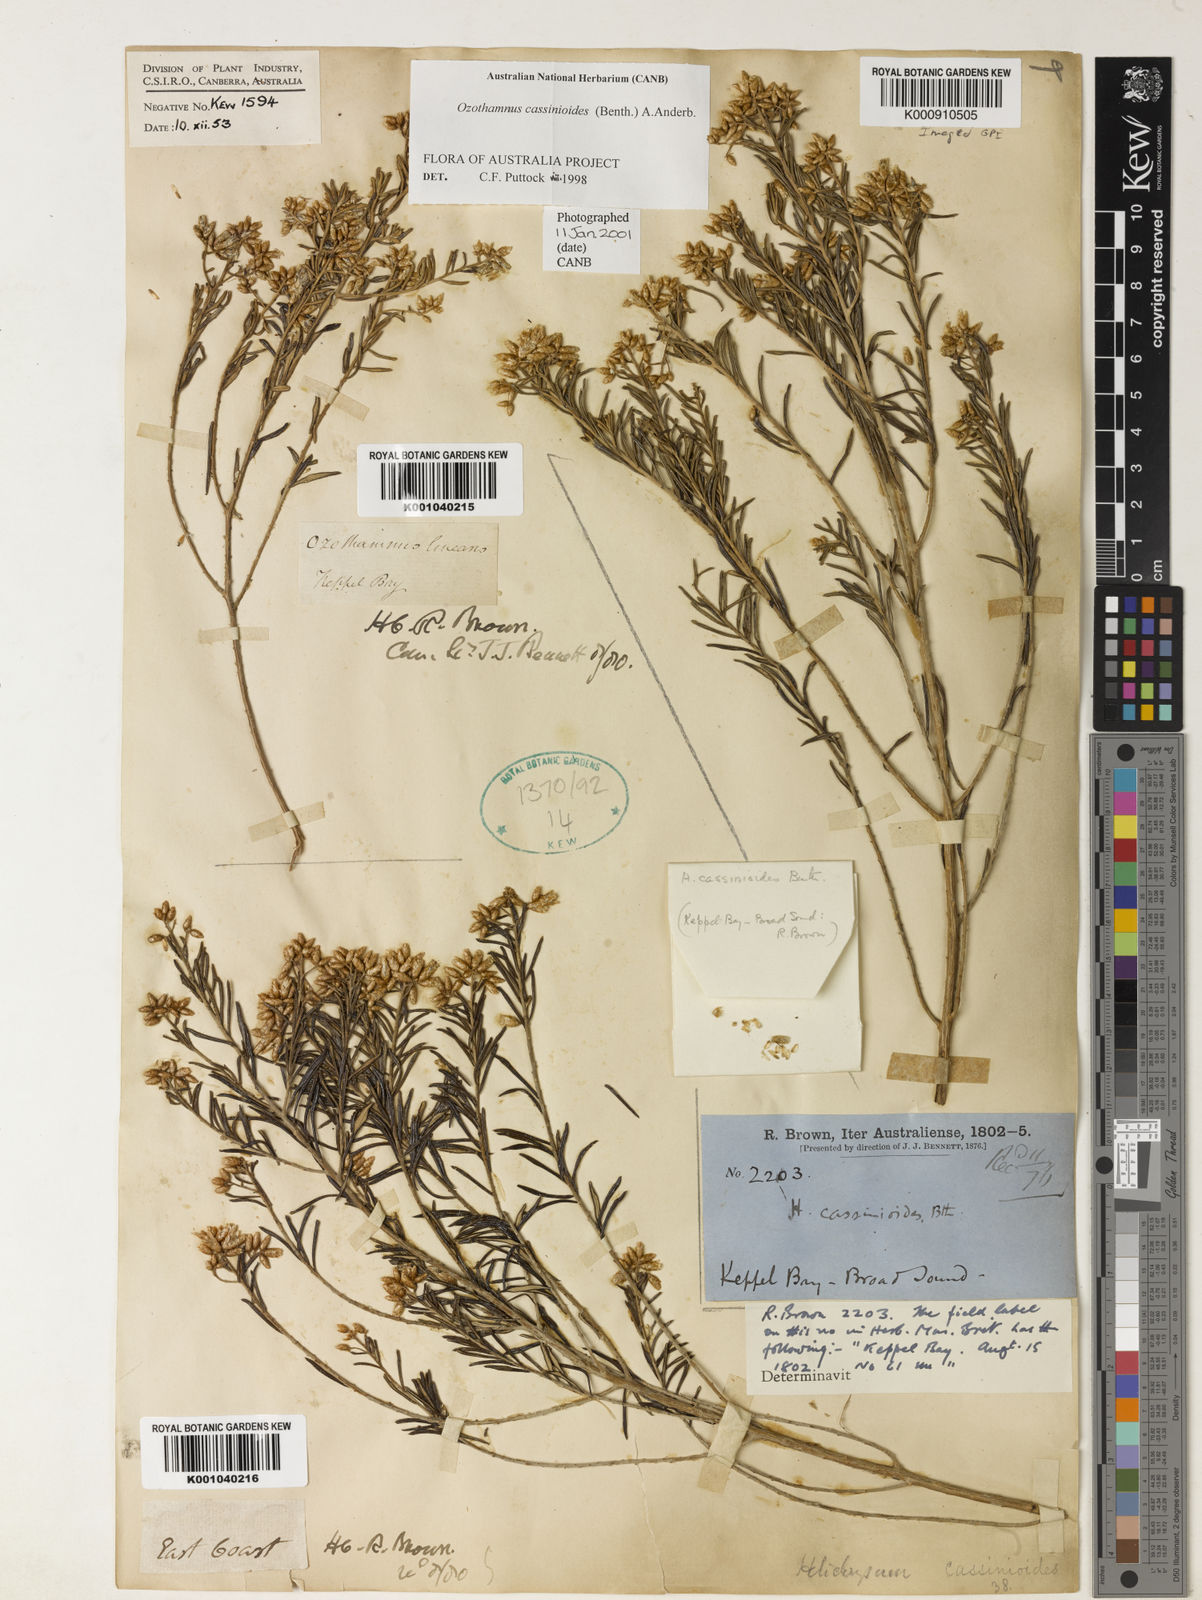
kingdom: Plantae
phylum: Tracheophyta
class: Magnoliopsida
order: Asterales
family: Asteraceae
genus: Ozothamnus
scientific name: Ozothamnus cassinioides
